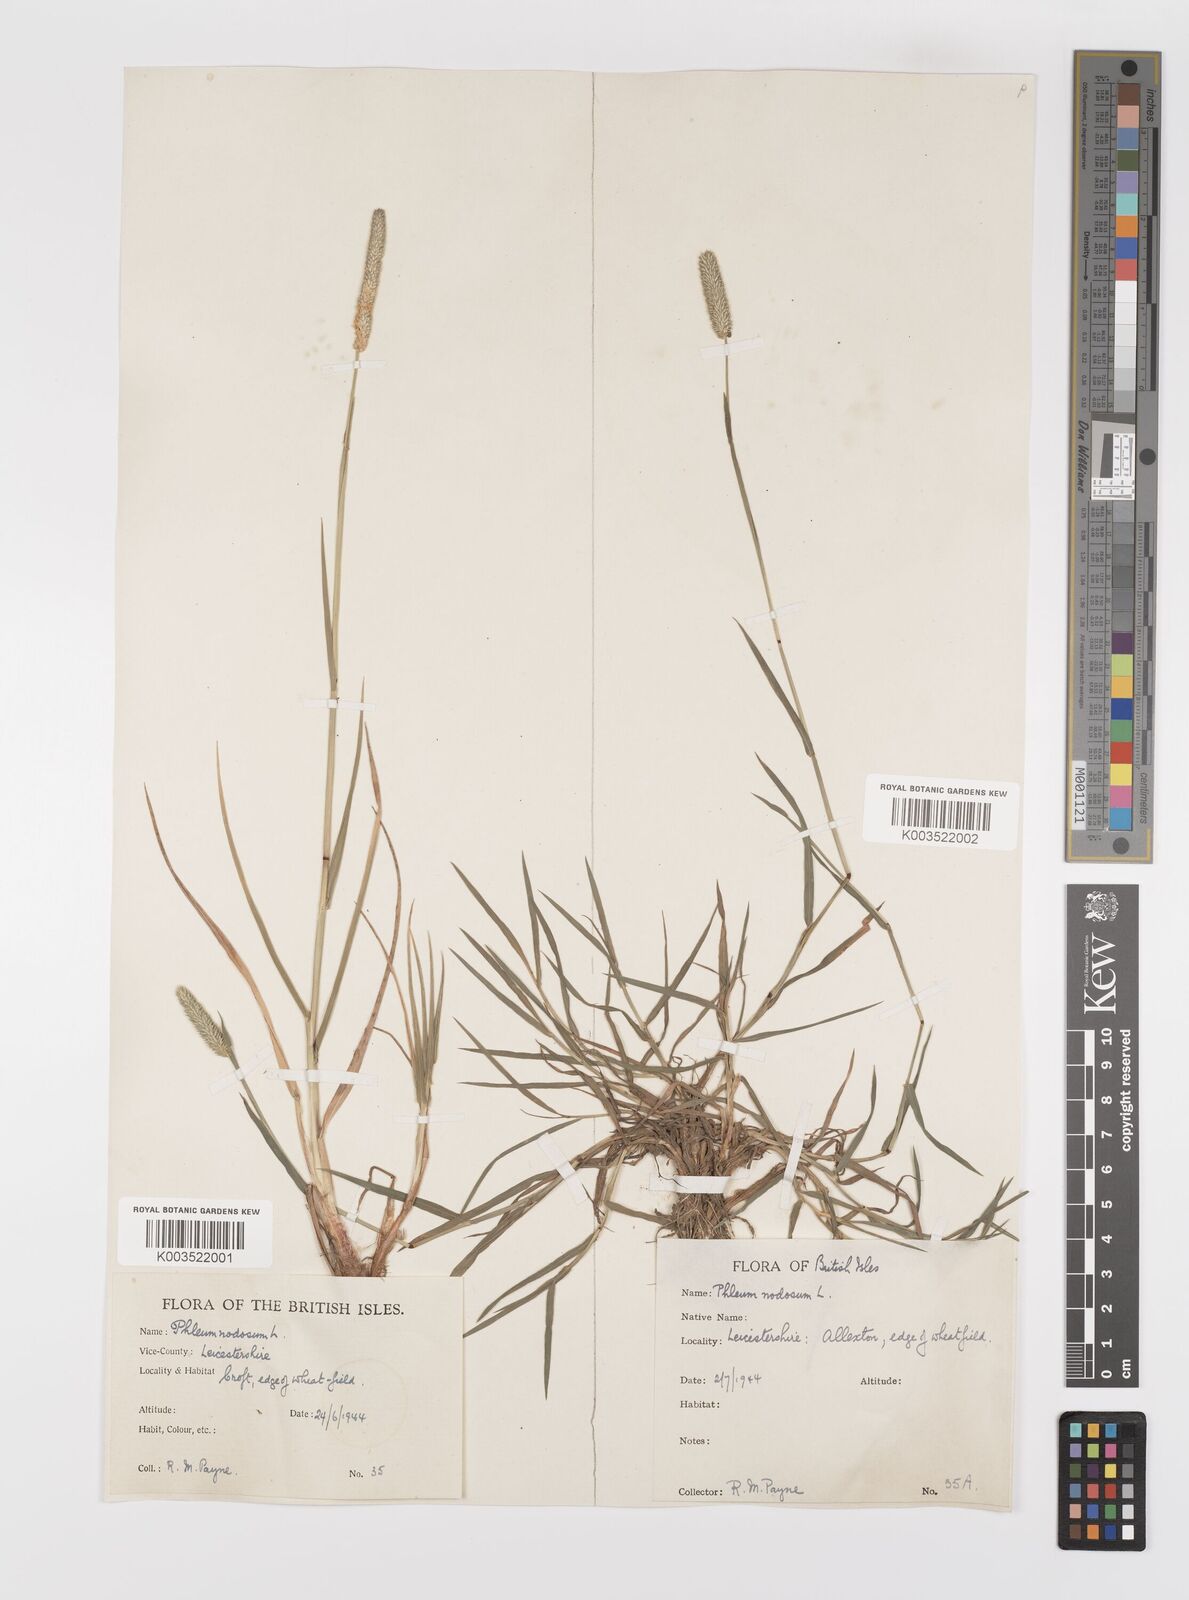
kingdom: Plantae
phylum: Tracheophyta
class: Liliopsida
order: Poales
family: Poaceae
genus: Phleum
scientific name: Phleum bertolonii
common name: Smaller cat's-tail
